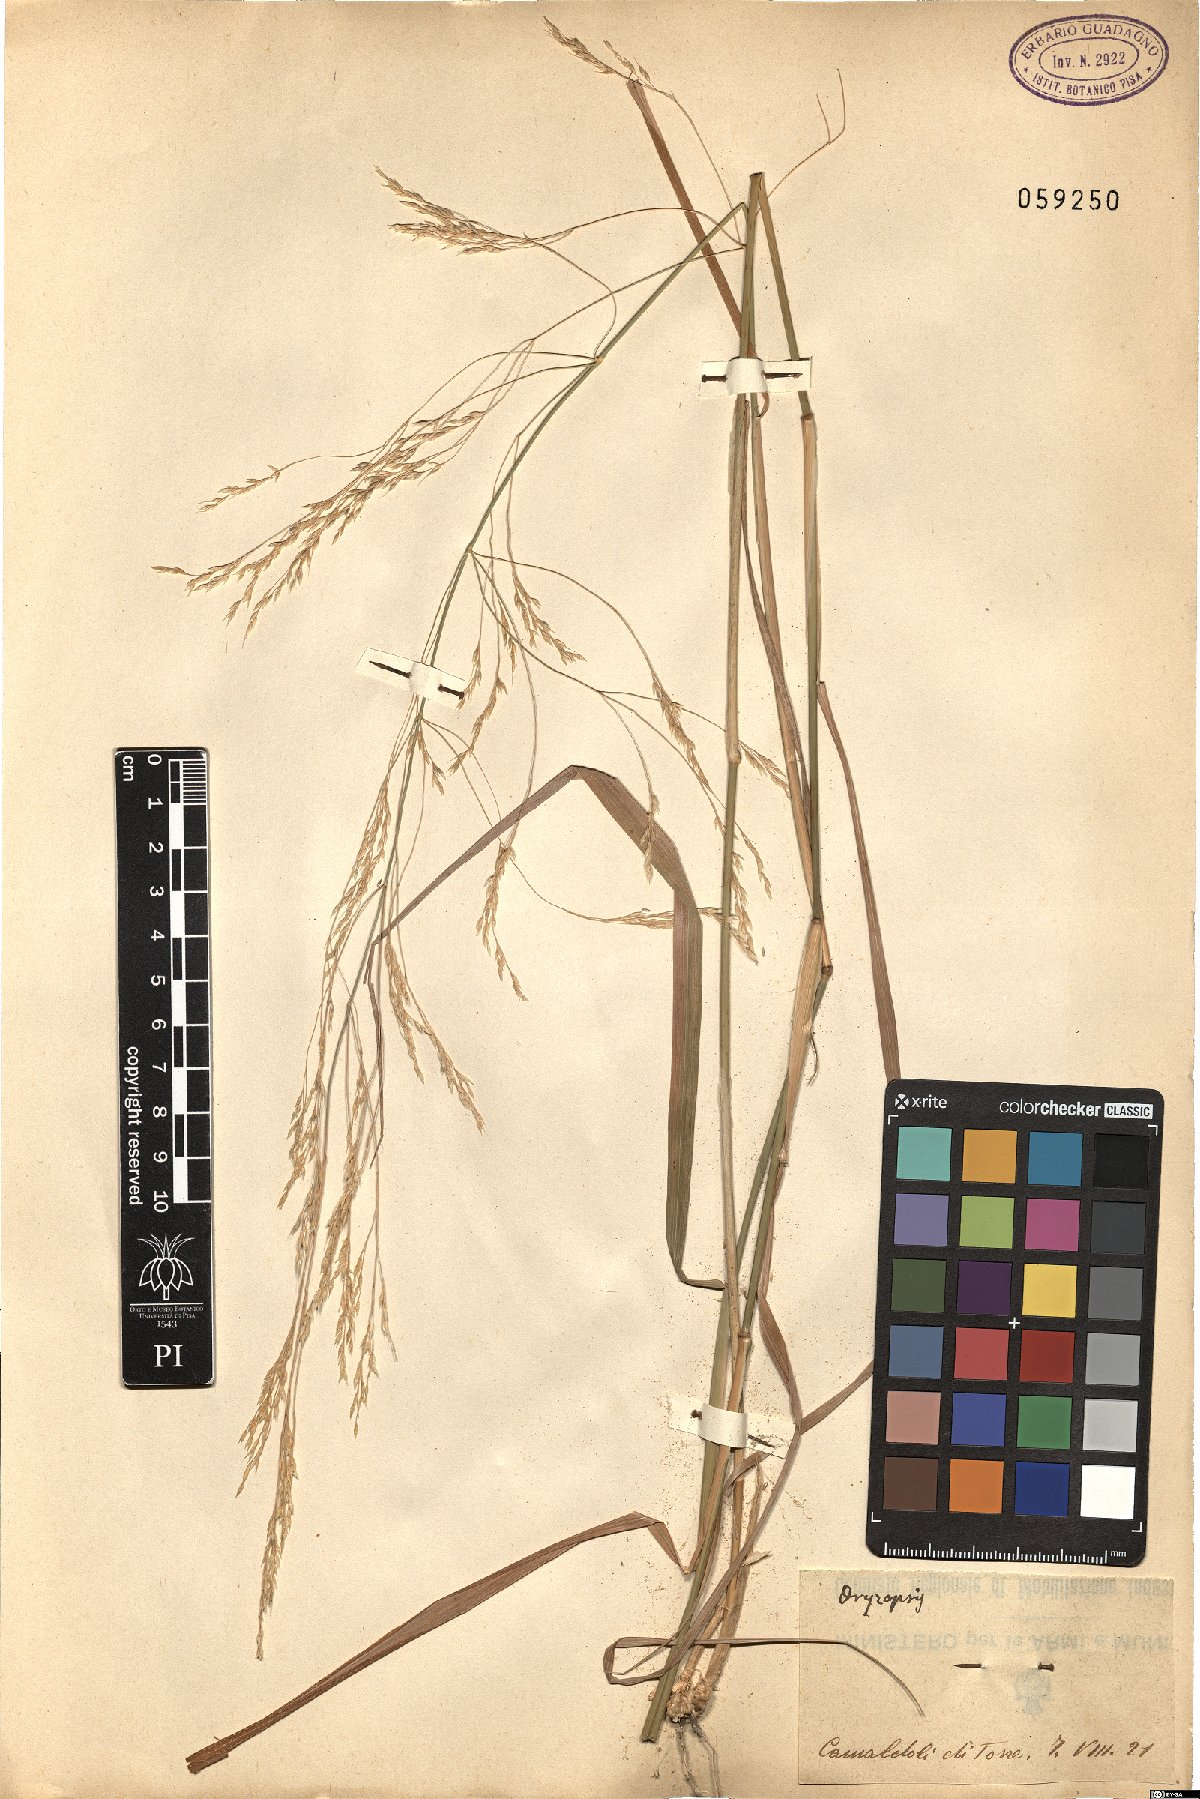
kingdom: Plantae
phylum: Tracheophyta
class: Liliopsida
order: Poales
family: Poaceae
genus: Oryzopsis
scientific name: Oryzopsis
